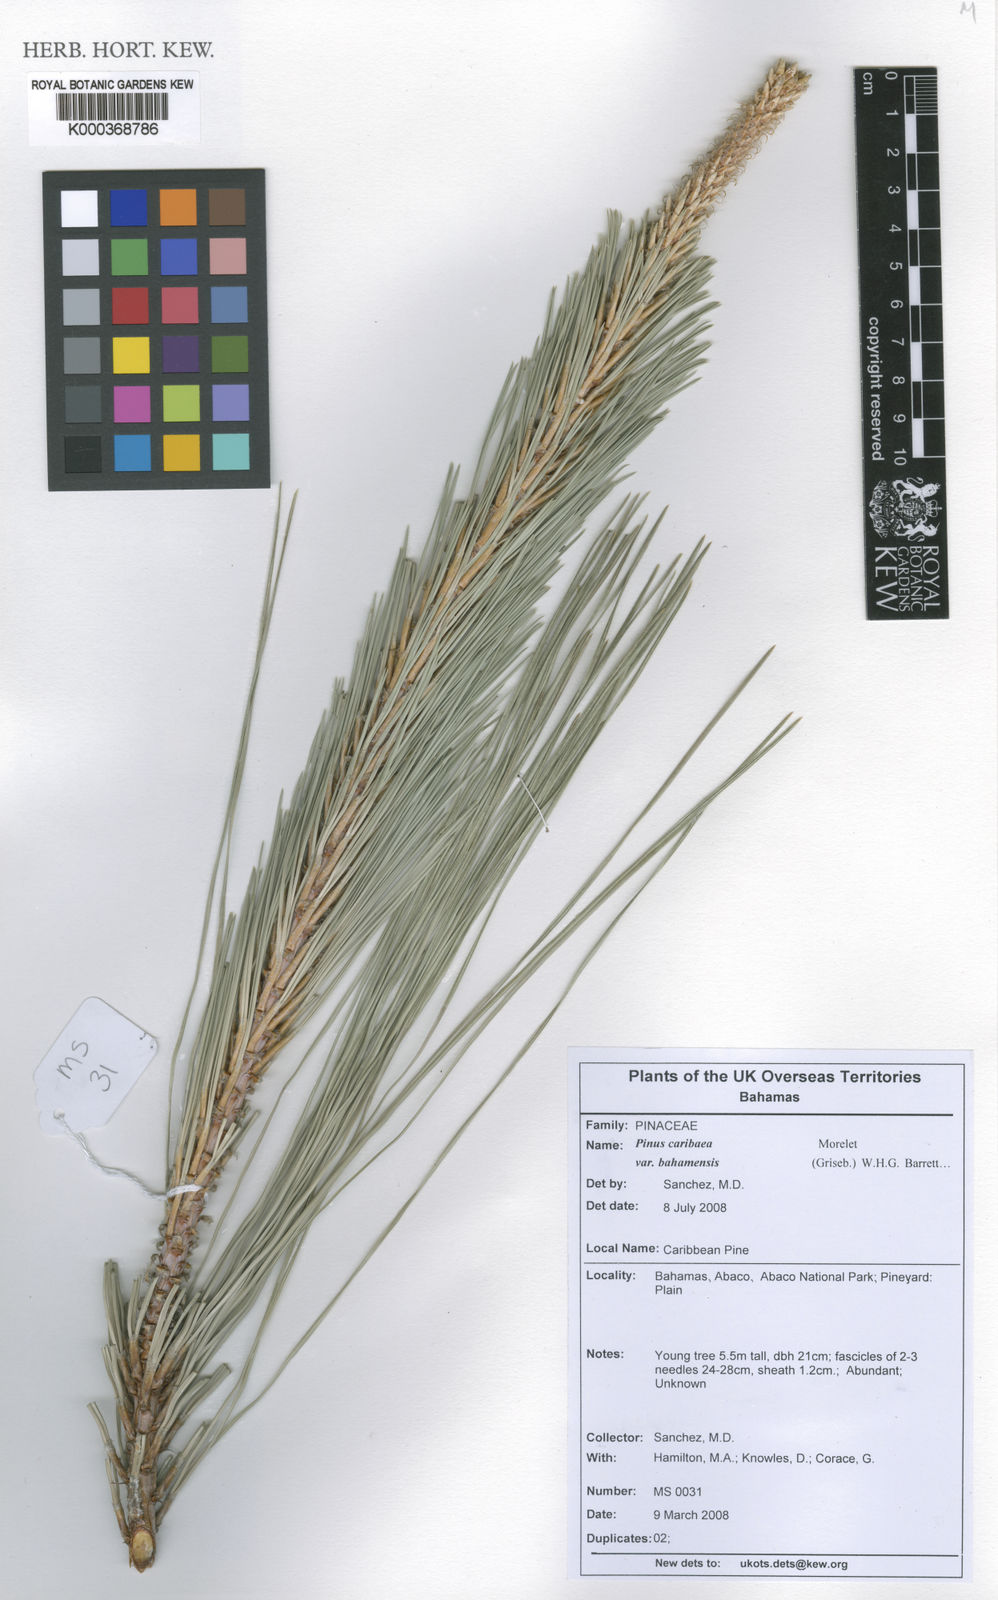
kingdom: Plantae
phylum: Tracheophyta
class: Pinopsida
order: Pinales
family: Pinaceae
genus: Pinus
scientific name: Pinus caribaea
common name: Caribbean pine
